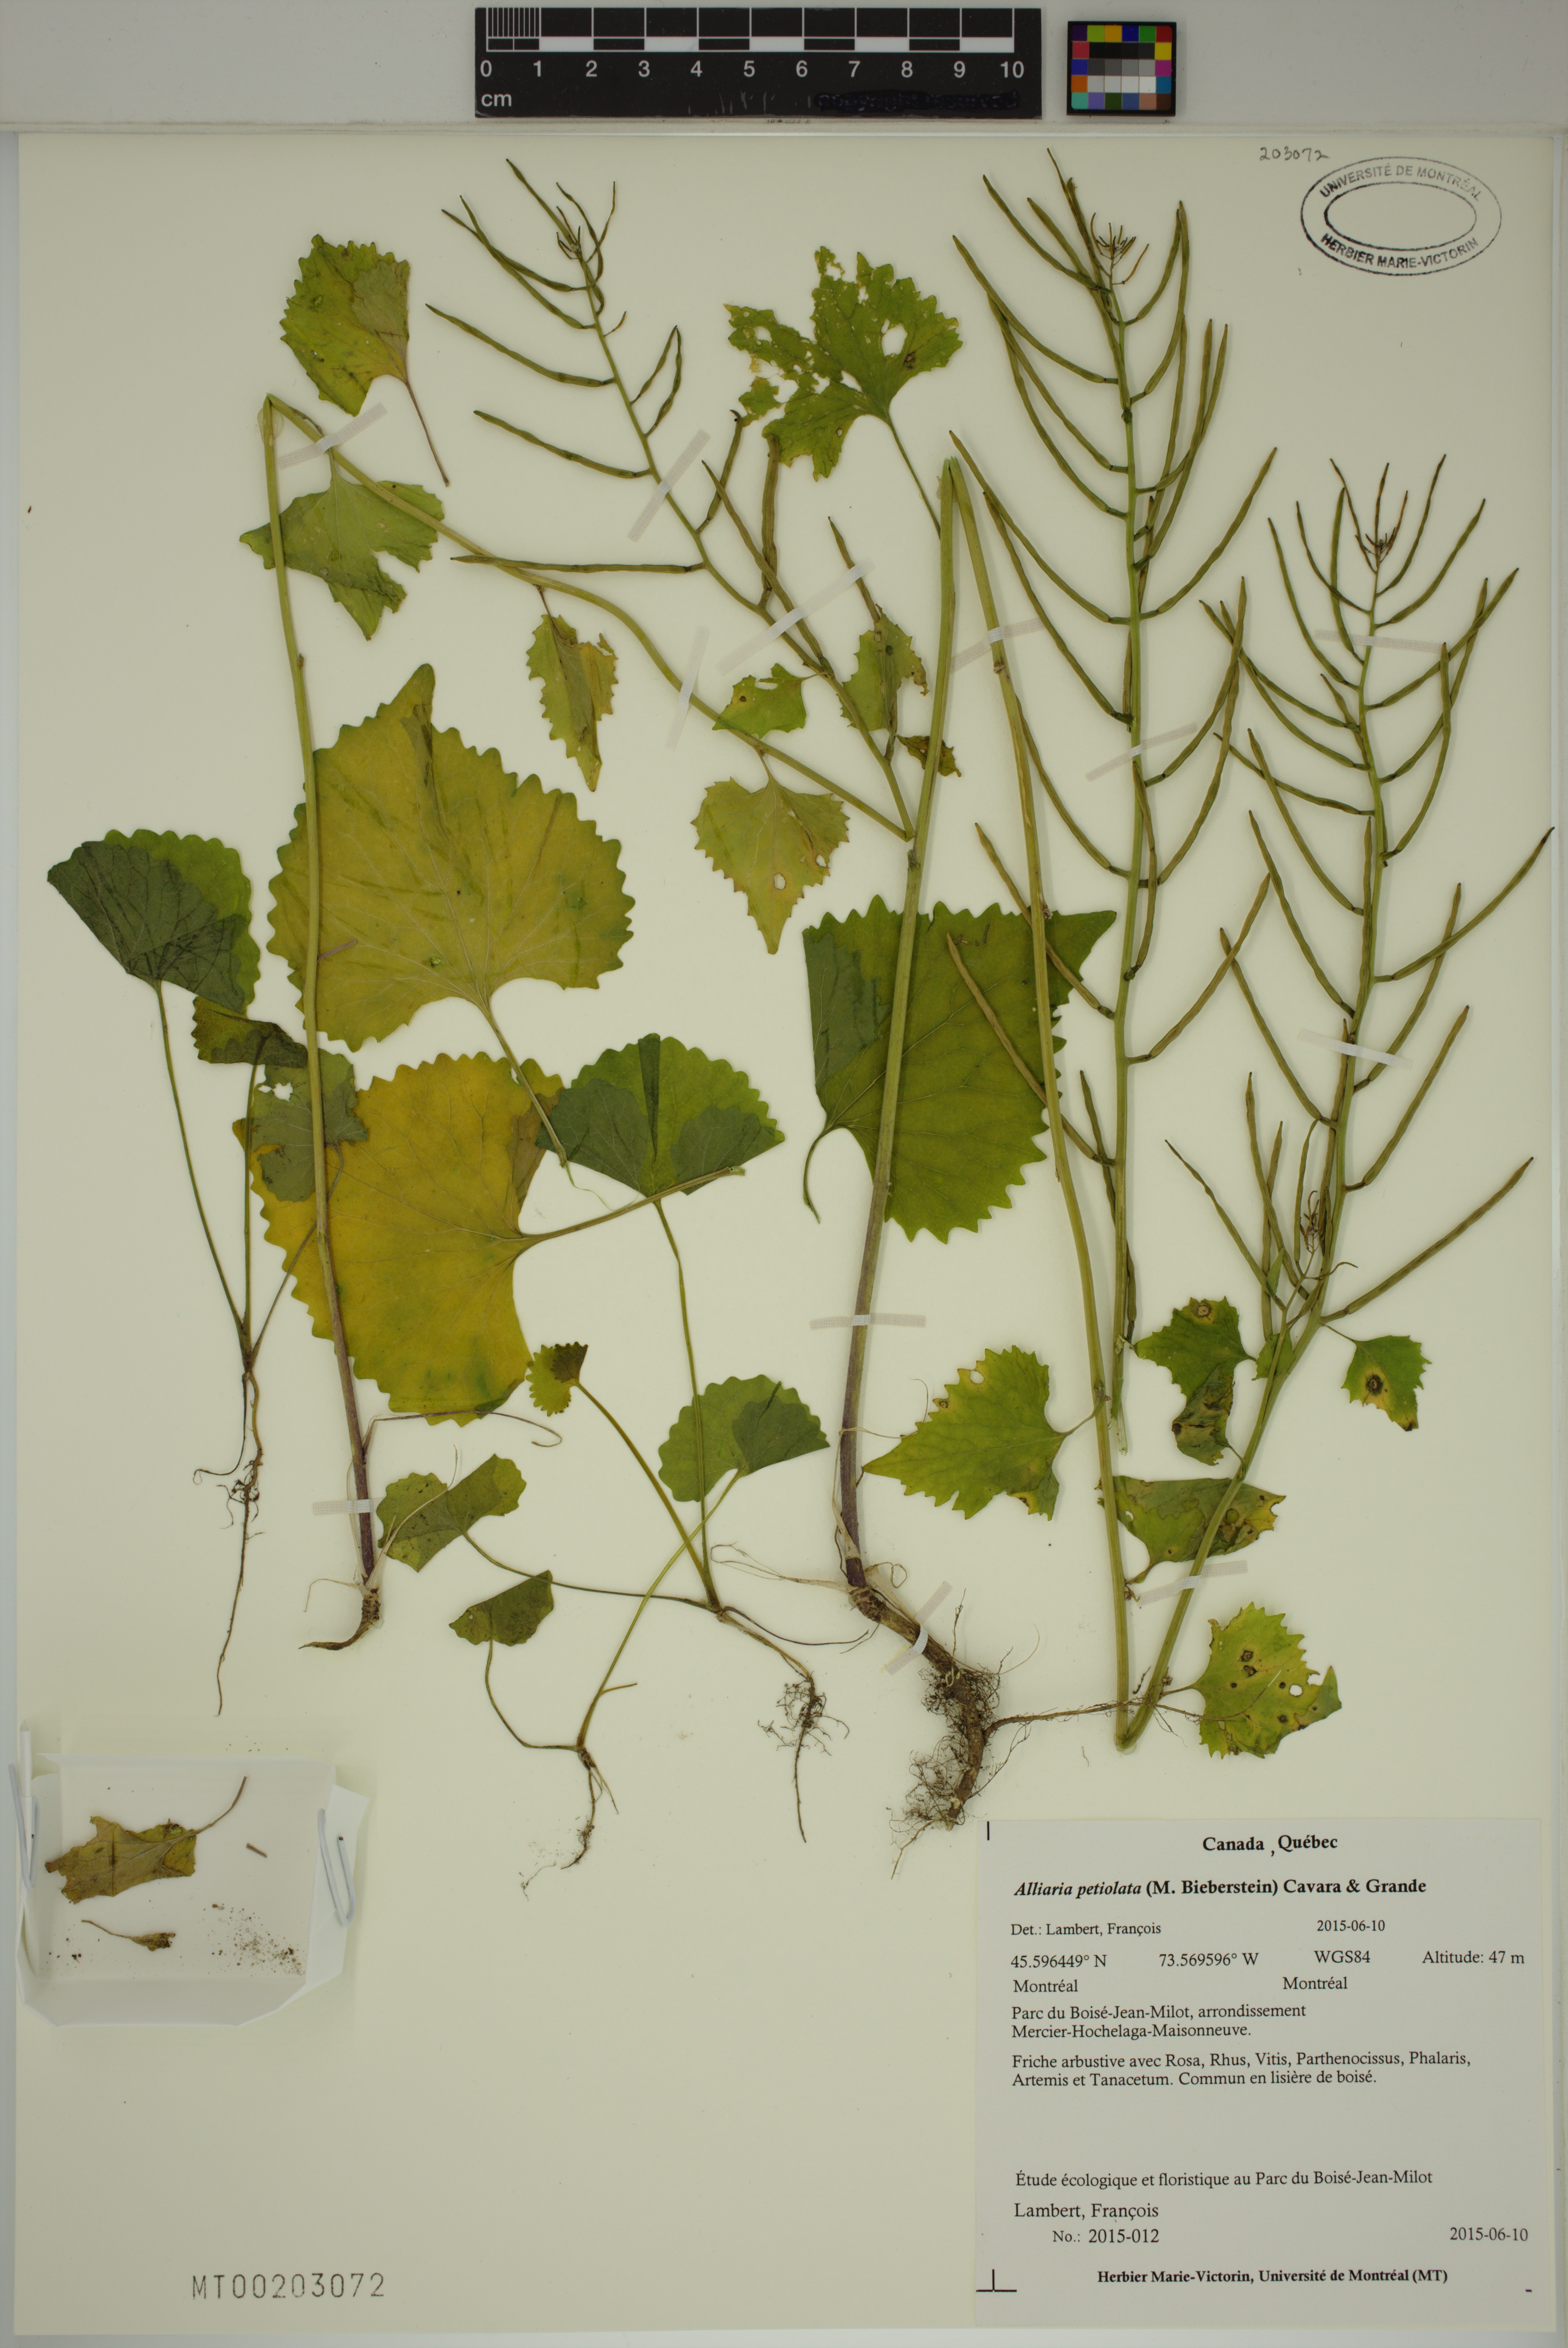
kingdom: Plantae
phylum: Tracheophyta
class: Magnoliopsida
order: Brassicales
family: Brassicaceae
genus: Alliaria
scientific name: Alliaria petiolata
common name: Garlic mustard
